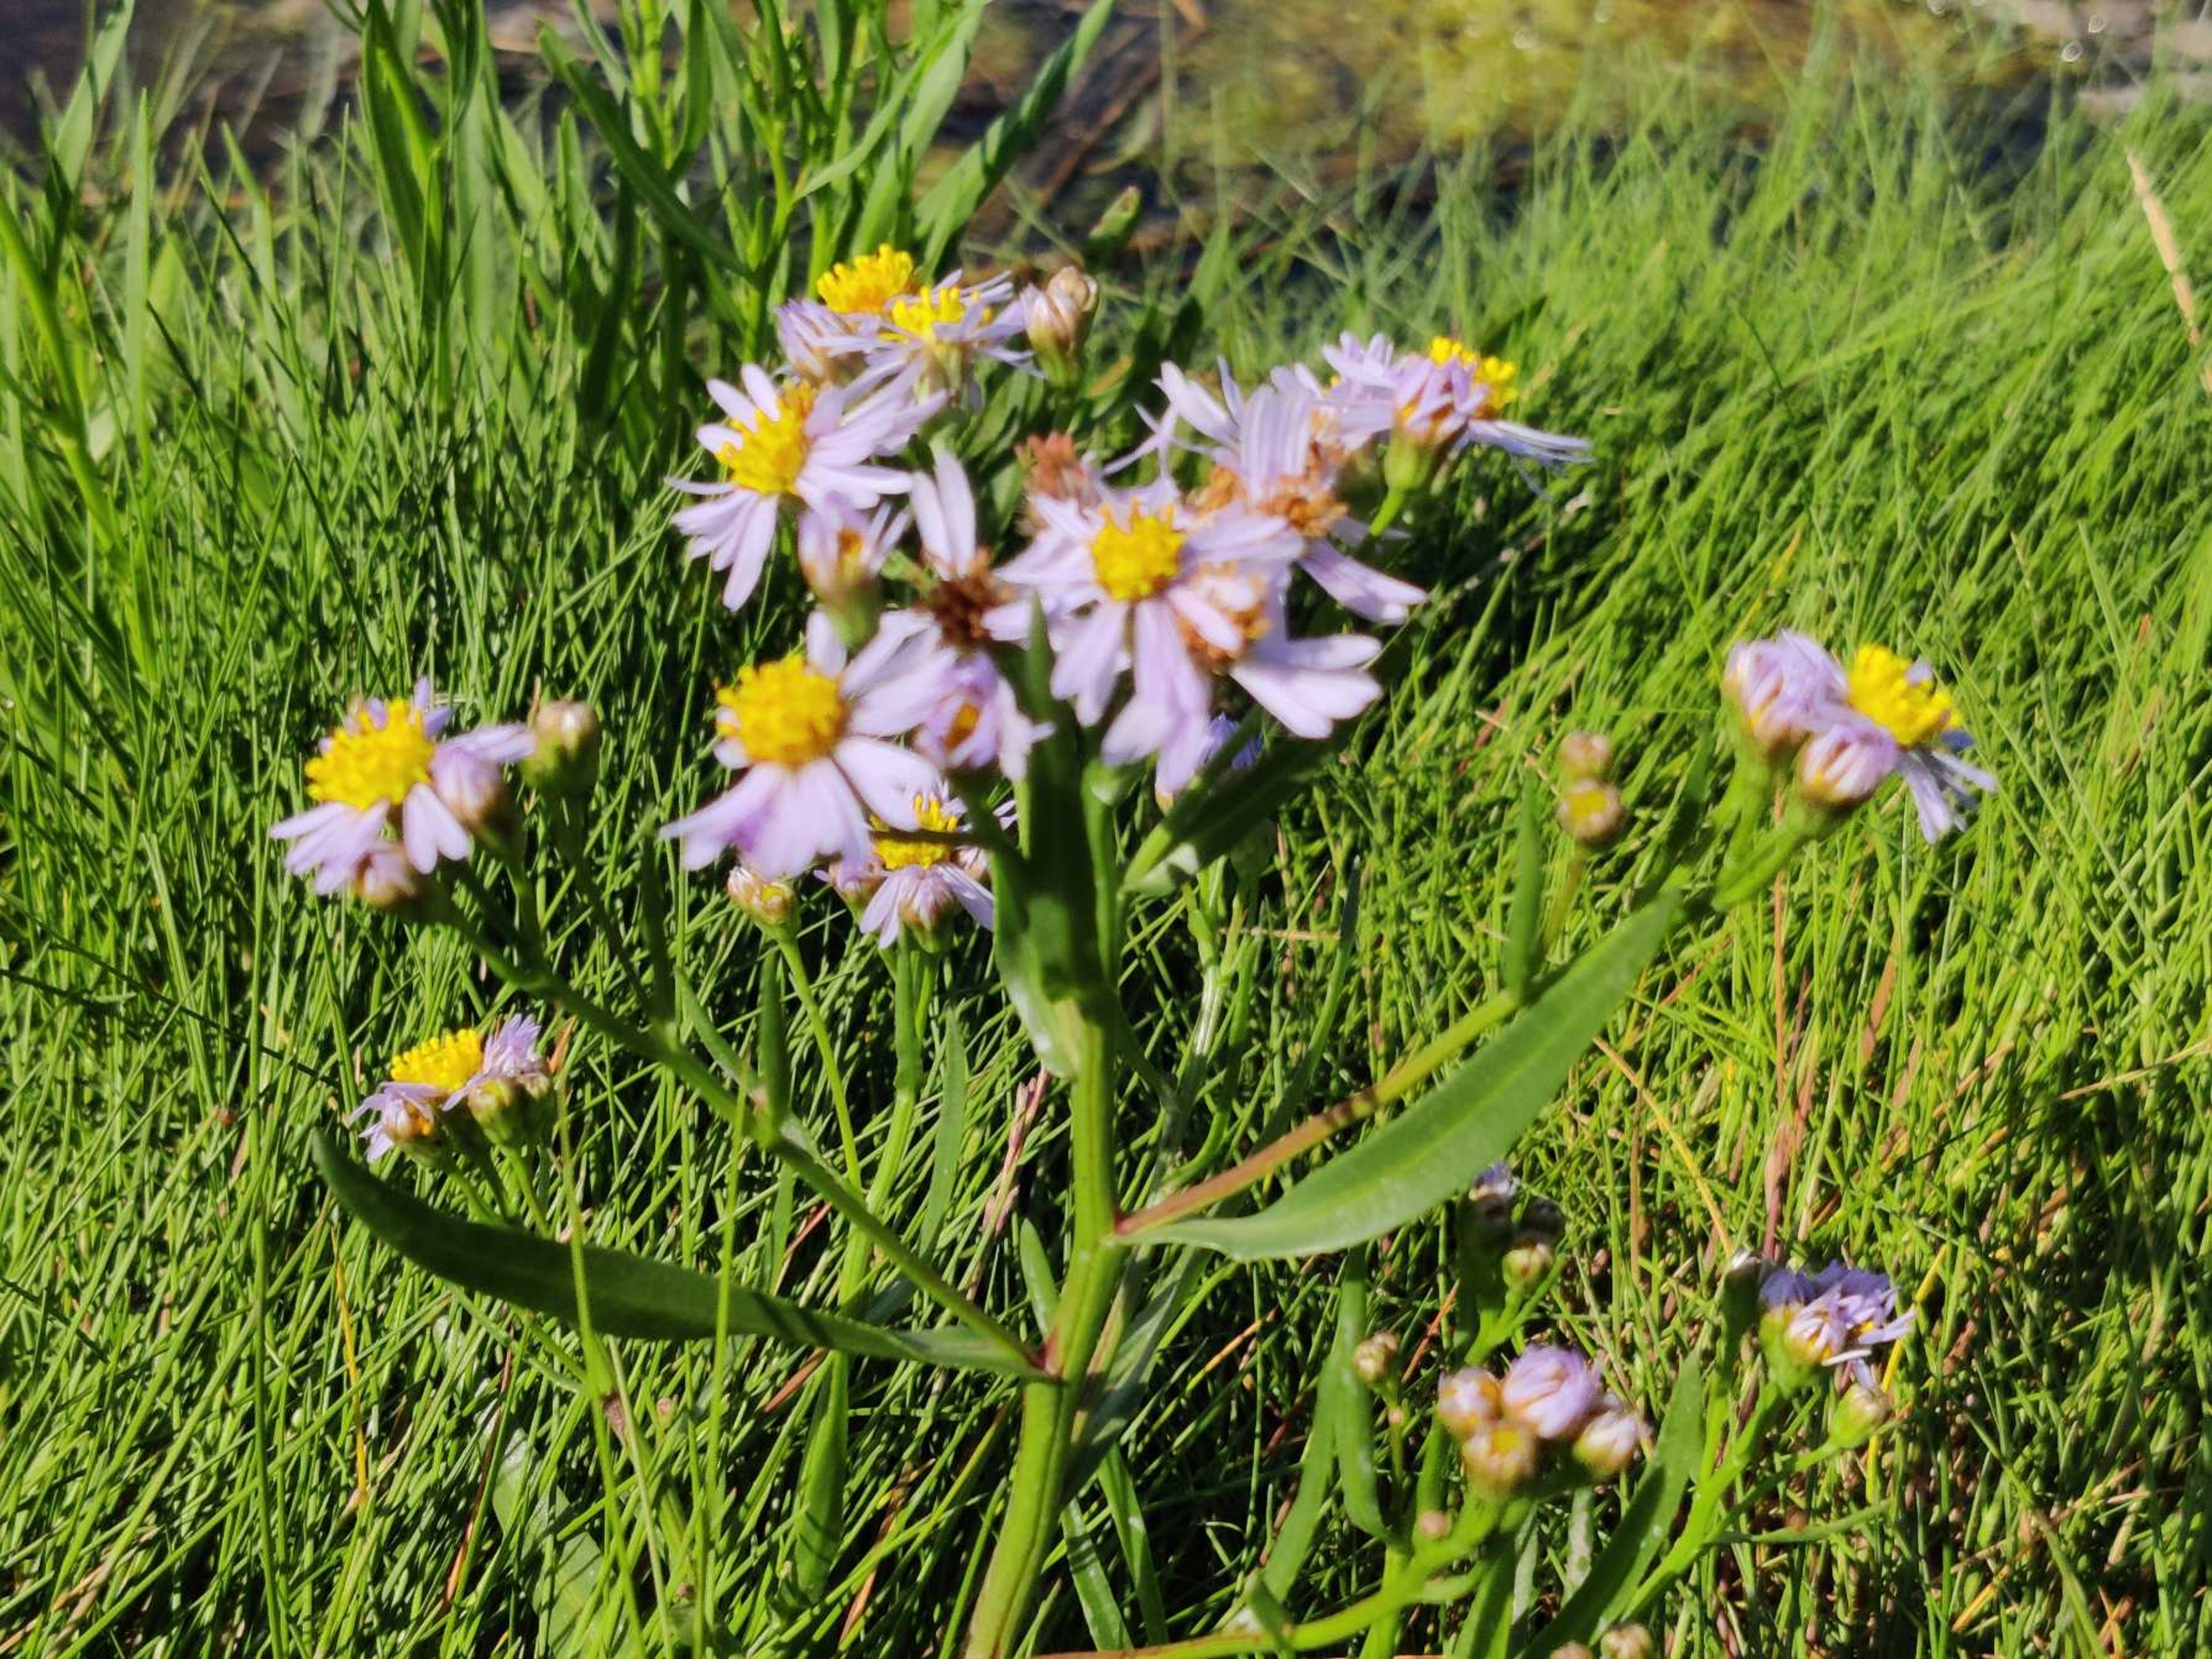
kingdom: Plantae
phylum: Tracheophyta
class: Magnoliopsida
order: Asterales
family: Asteraceae
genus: Tripolium
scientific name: Tripolium pannonicum
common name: Strandasters (underart)
